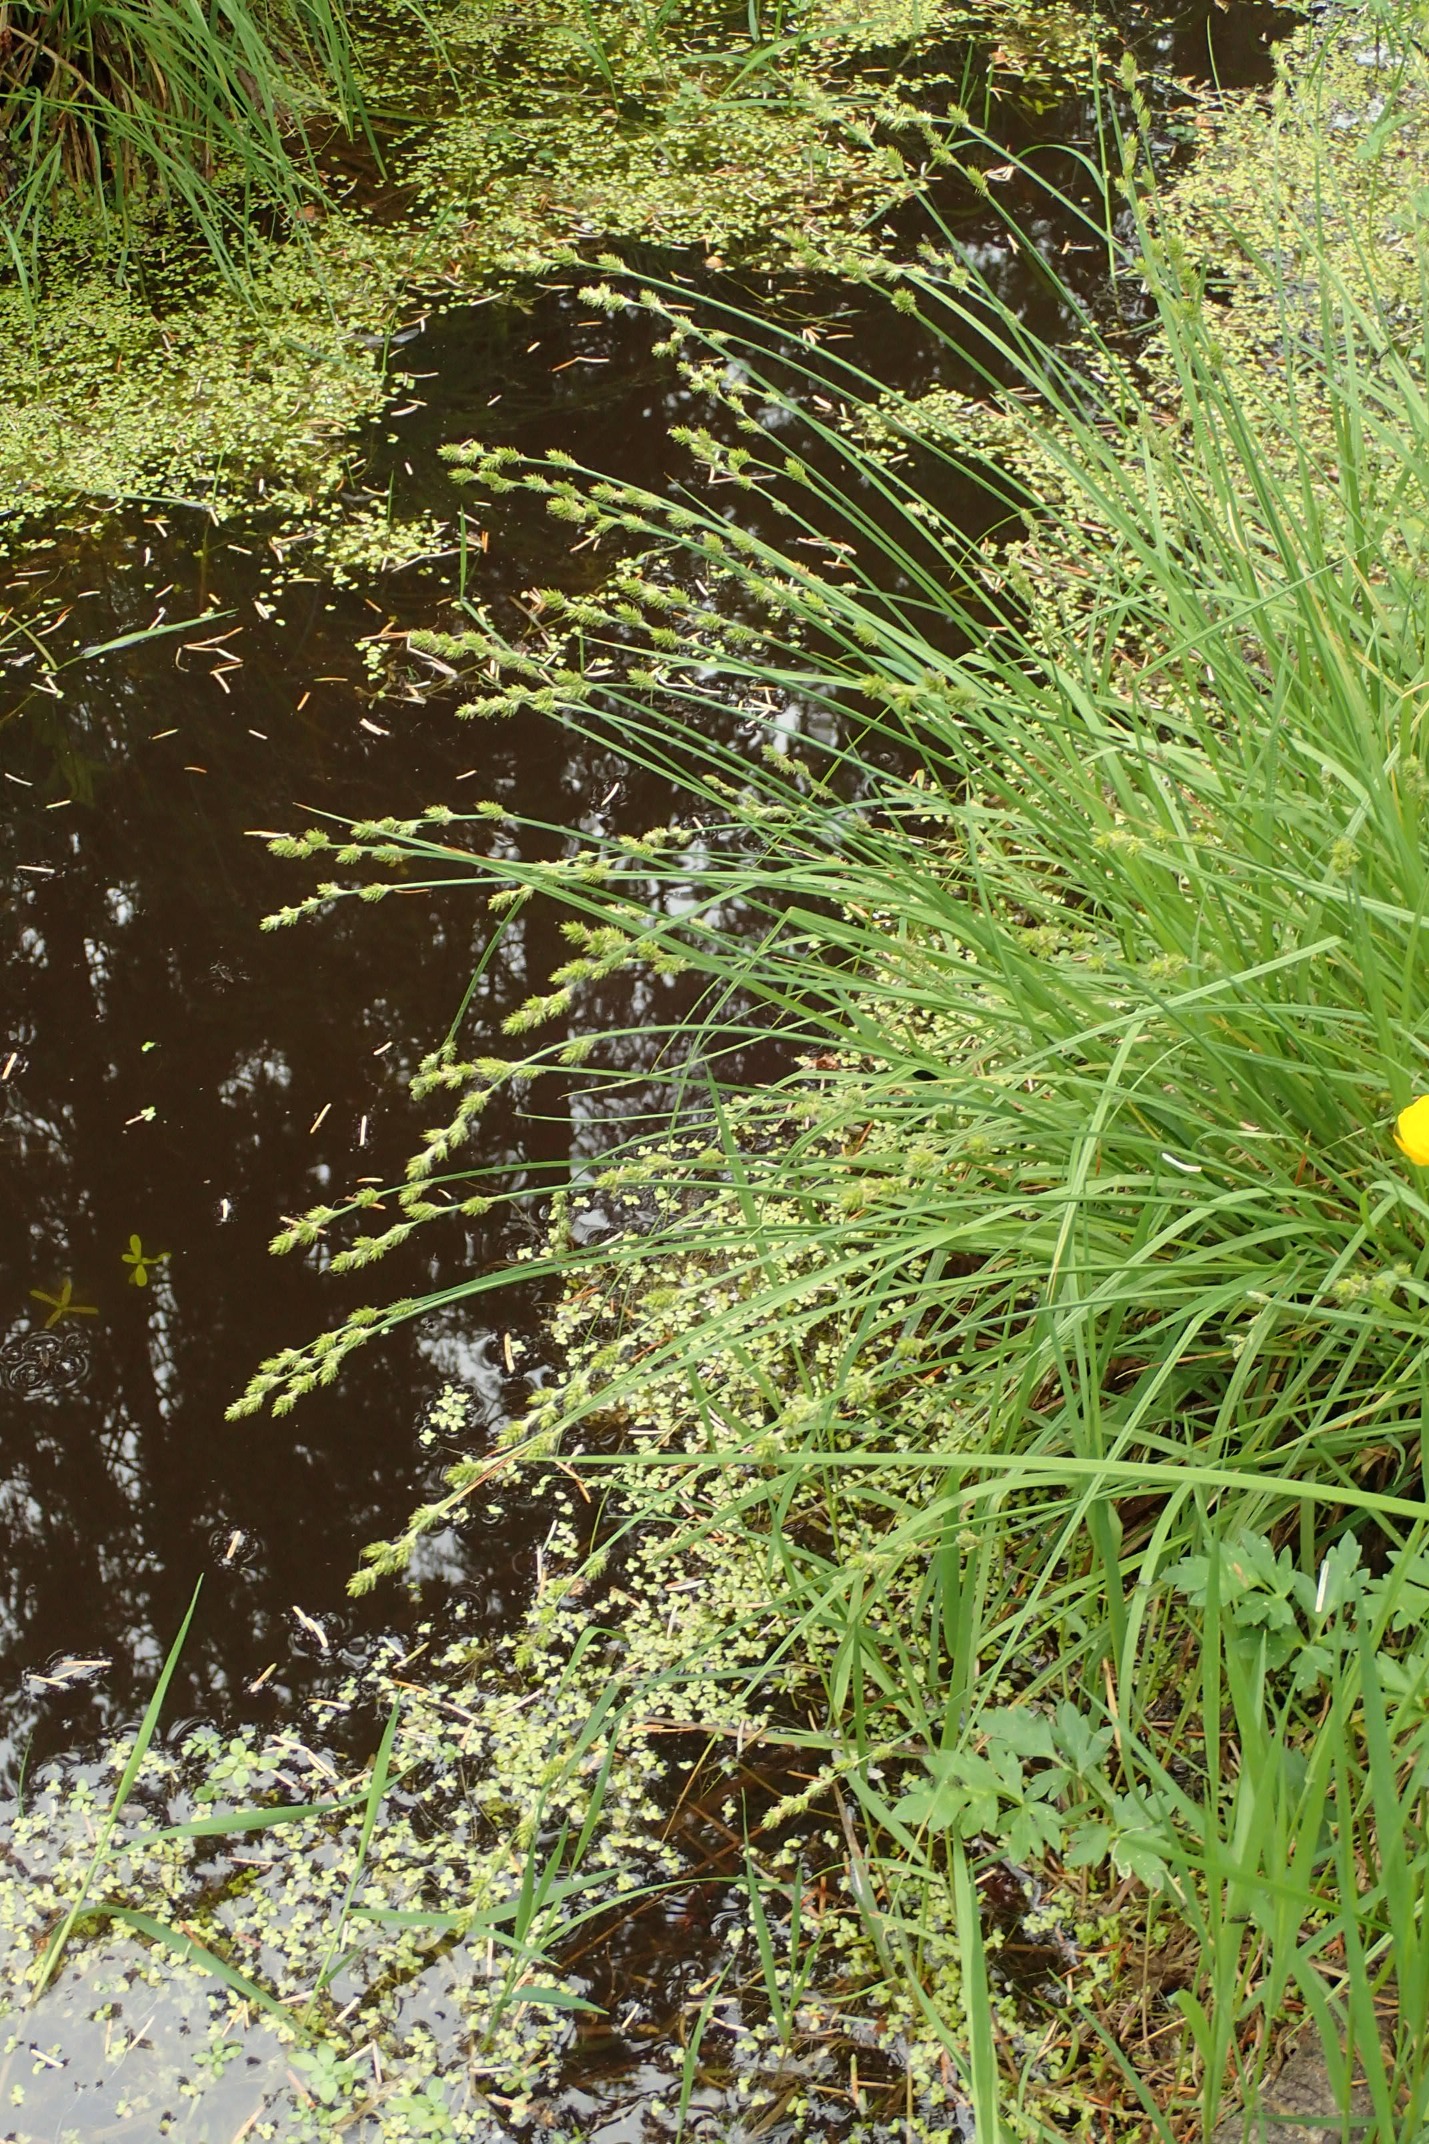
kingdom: Plantae
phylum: Tracheophyta
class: Liliopsida
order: Poales
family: Cyperaceae
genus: Carex
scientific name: Carex canescens
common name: Grå star
